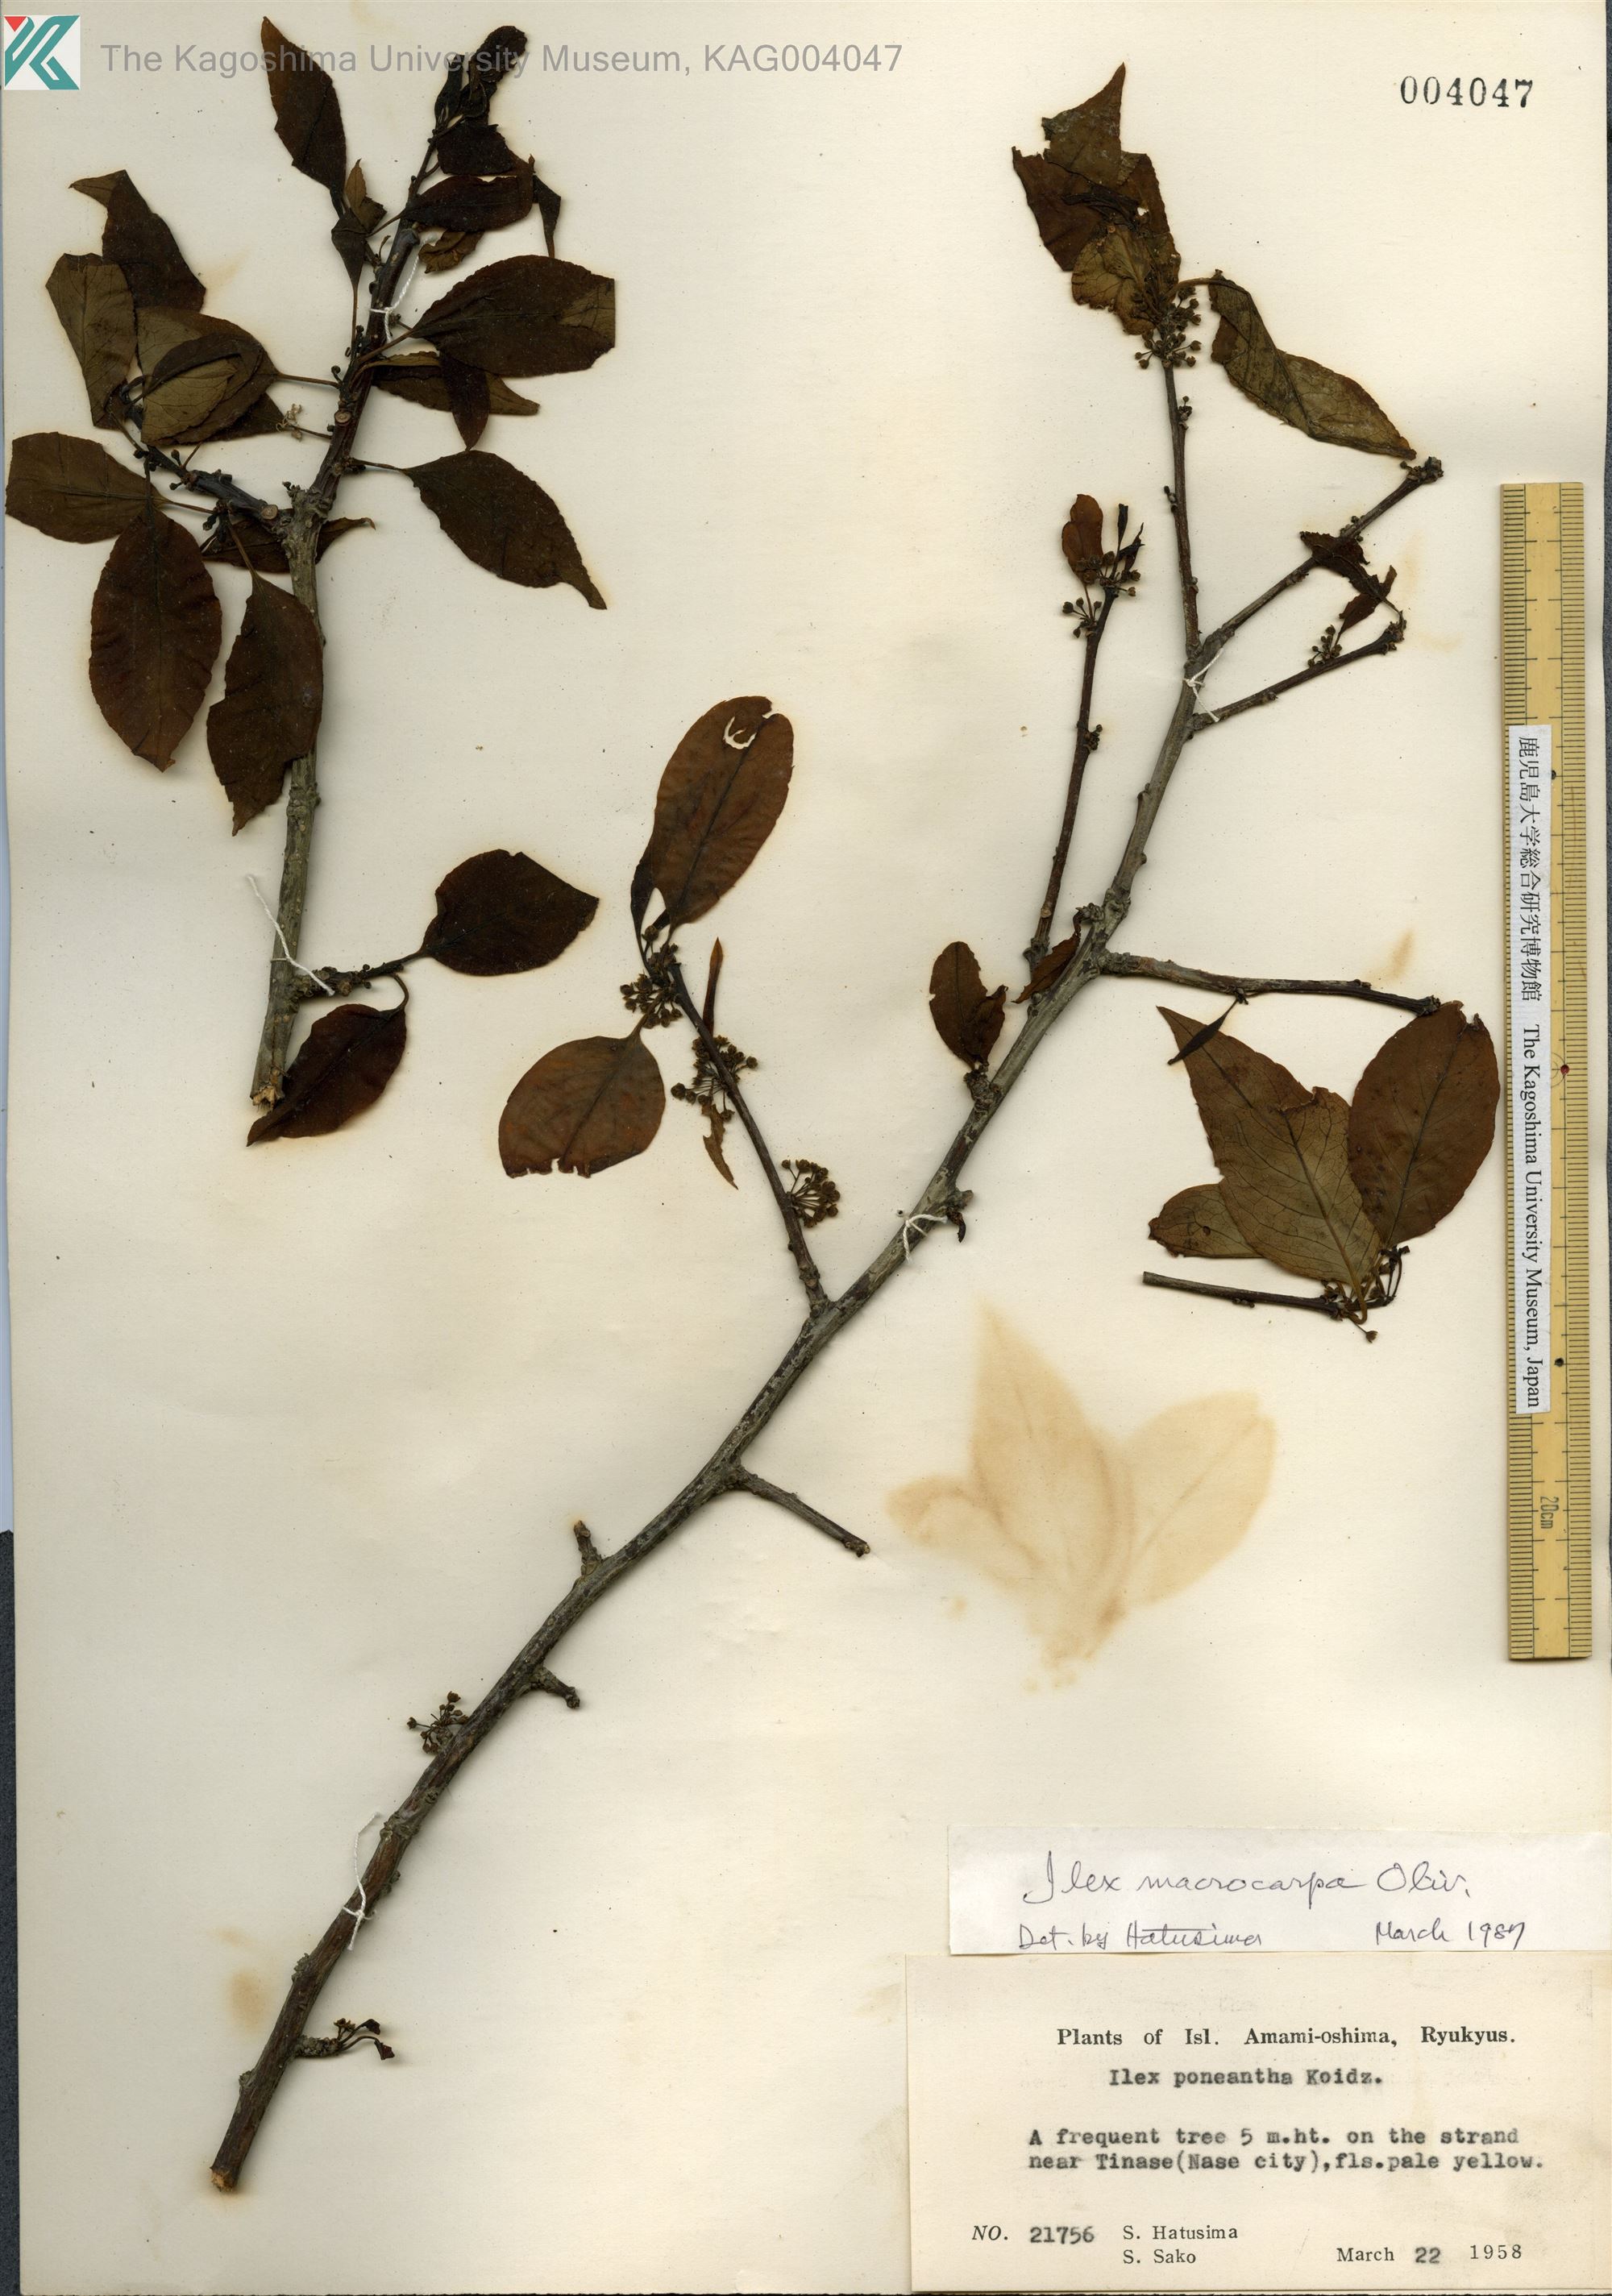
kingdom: Plantae
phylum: Tracheophyta
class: Magnoliopsida
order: Aquifoliales
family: Aquifoliaceae
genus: Ilex
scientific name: Ilex macrocarpa
